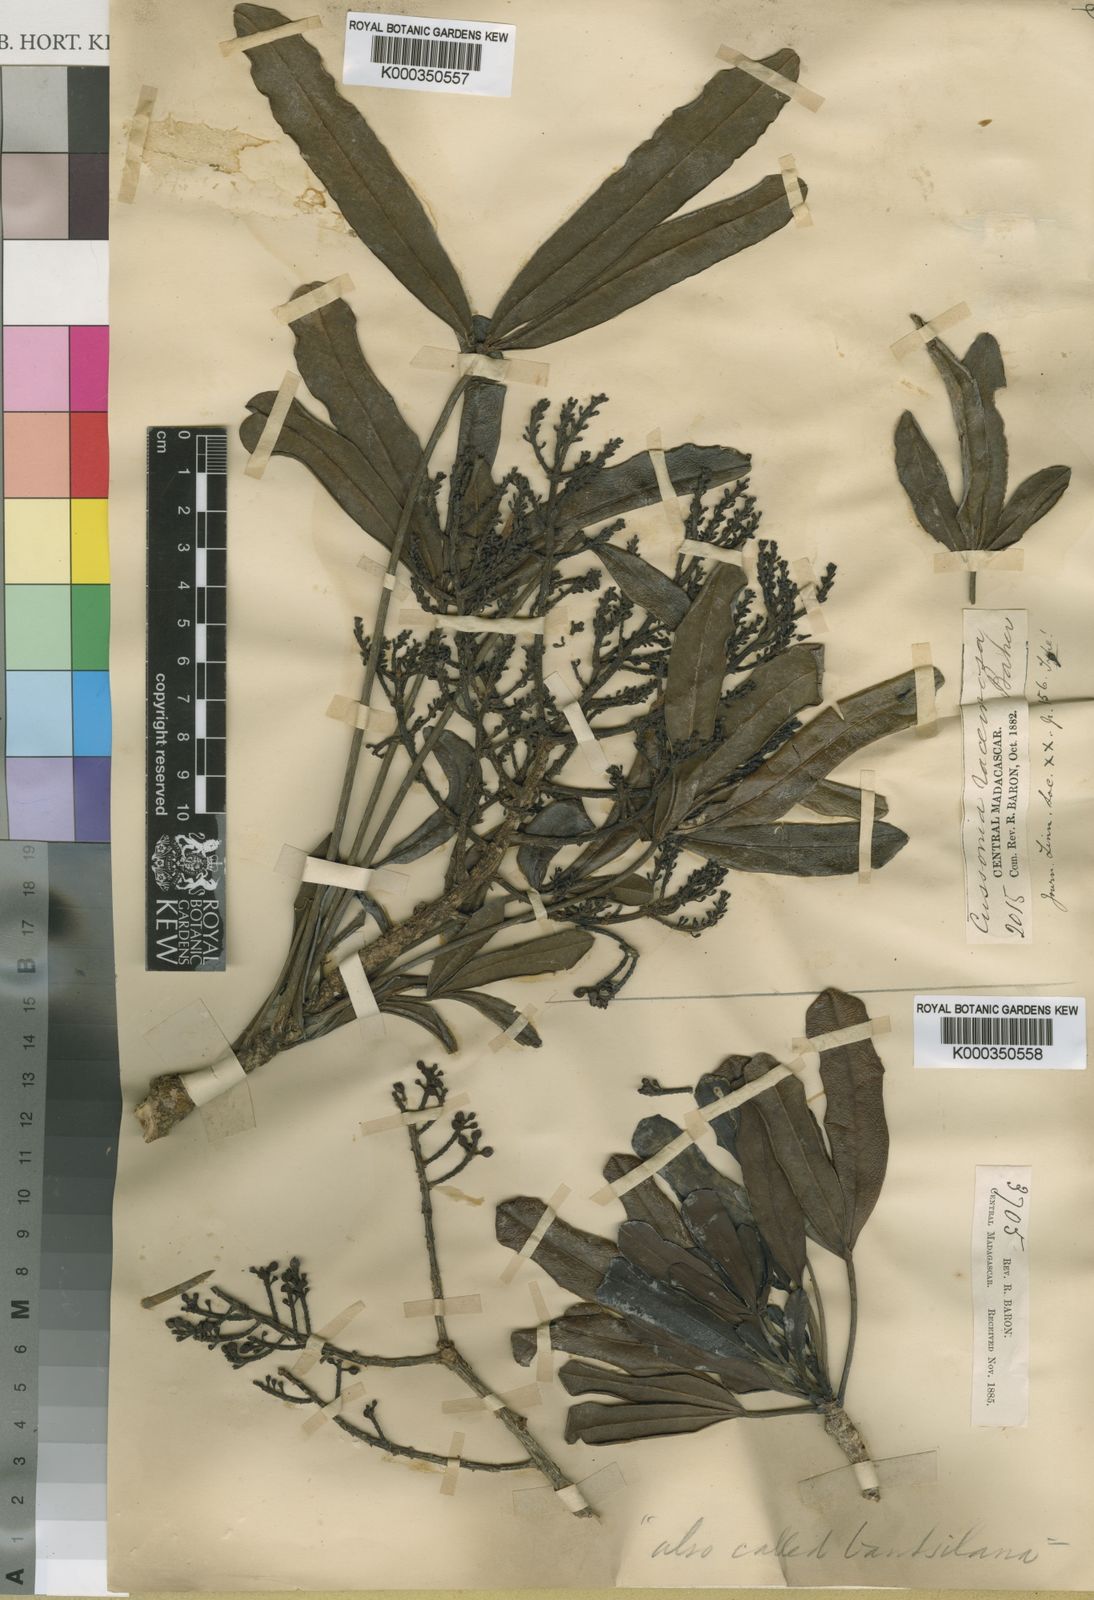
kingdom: Plantae
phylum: Tracheophyta
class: Magnoliopsida
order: Apiales
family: Araliaceae
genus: Neocussonia
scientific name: Neocussonia longipedicellata
